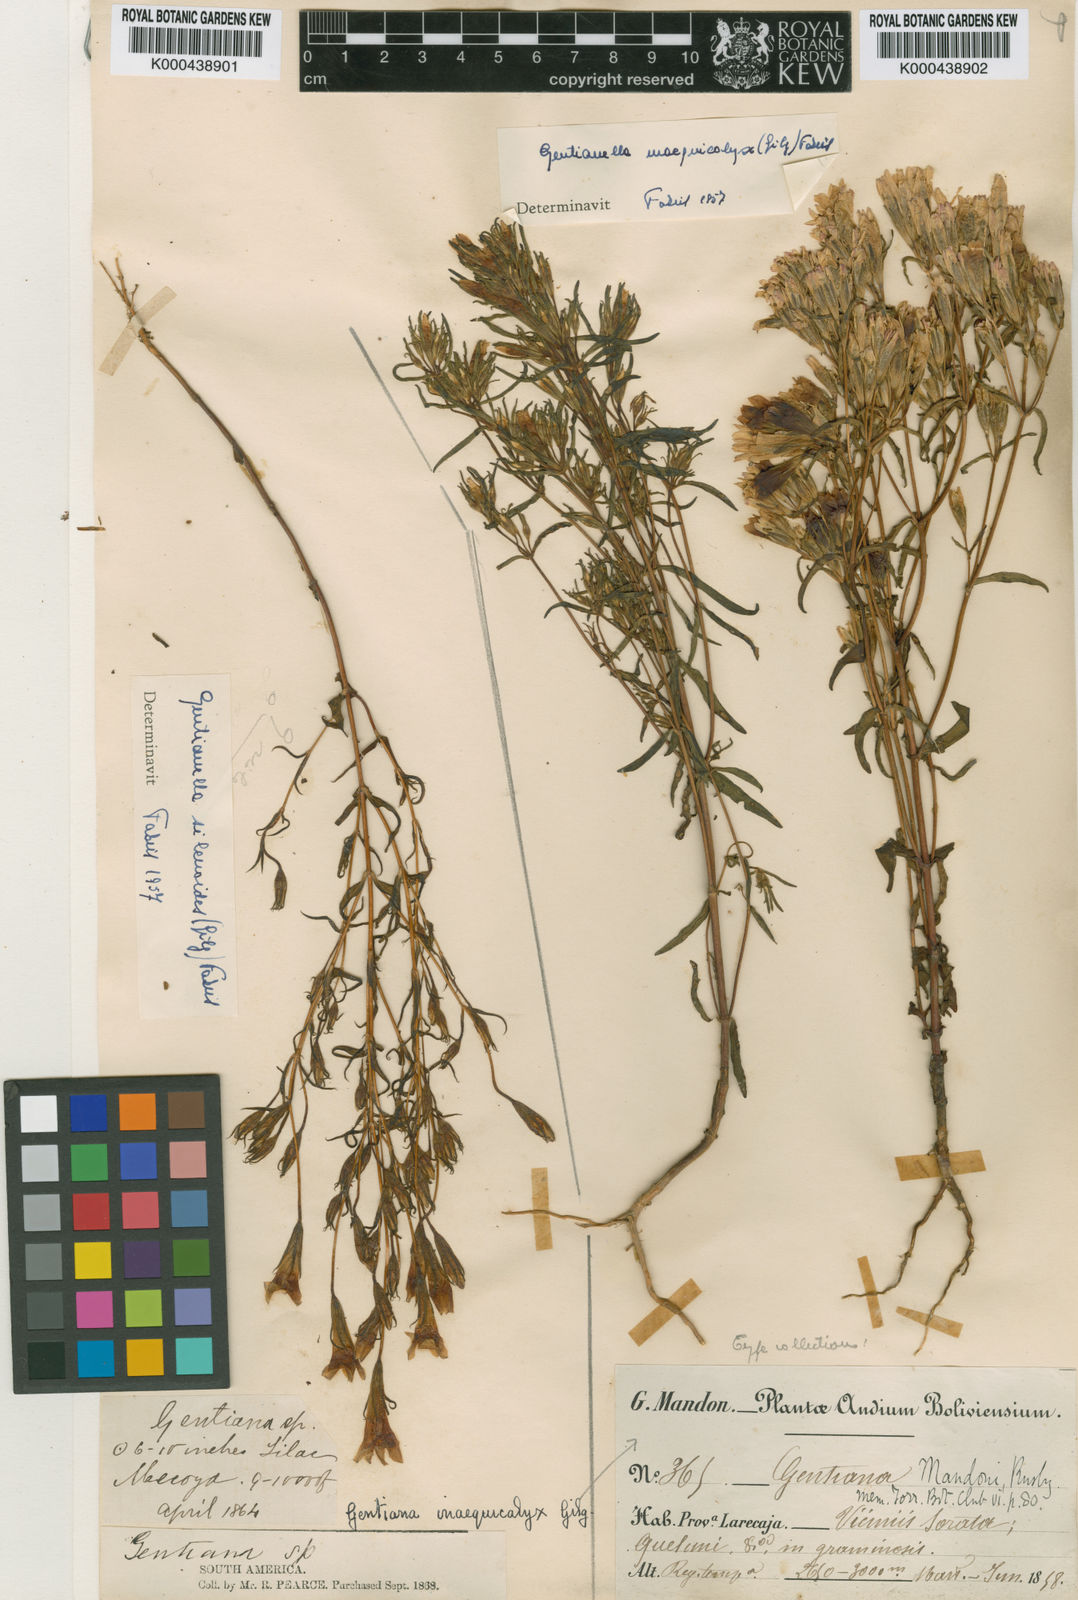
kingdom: Plantae
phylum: Tracheophyta
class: Magnoliopsida
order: Gentianales
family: Gentianaceae
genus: Gentianella
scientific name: Gentianella inaequicalyx
